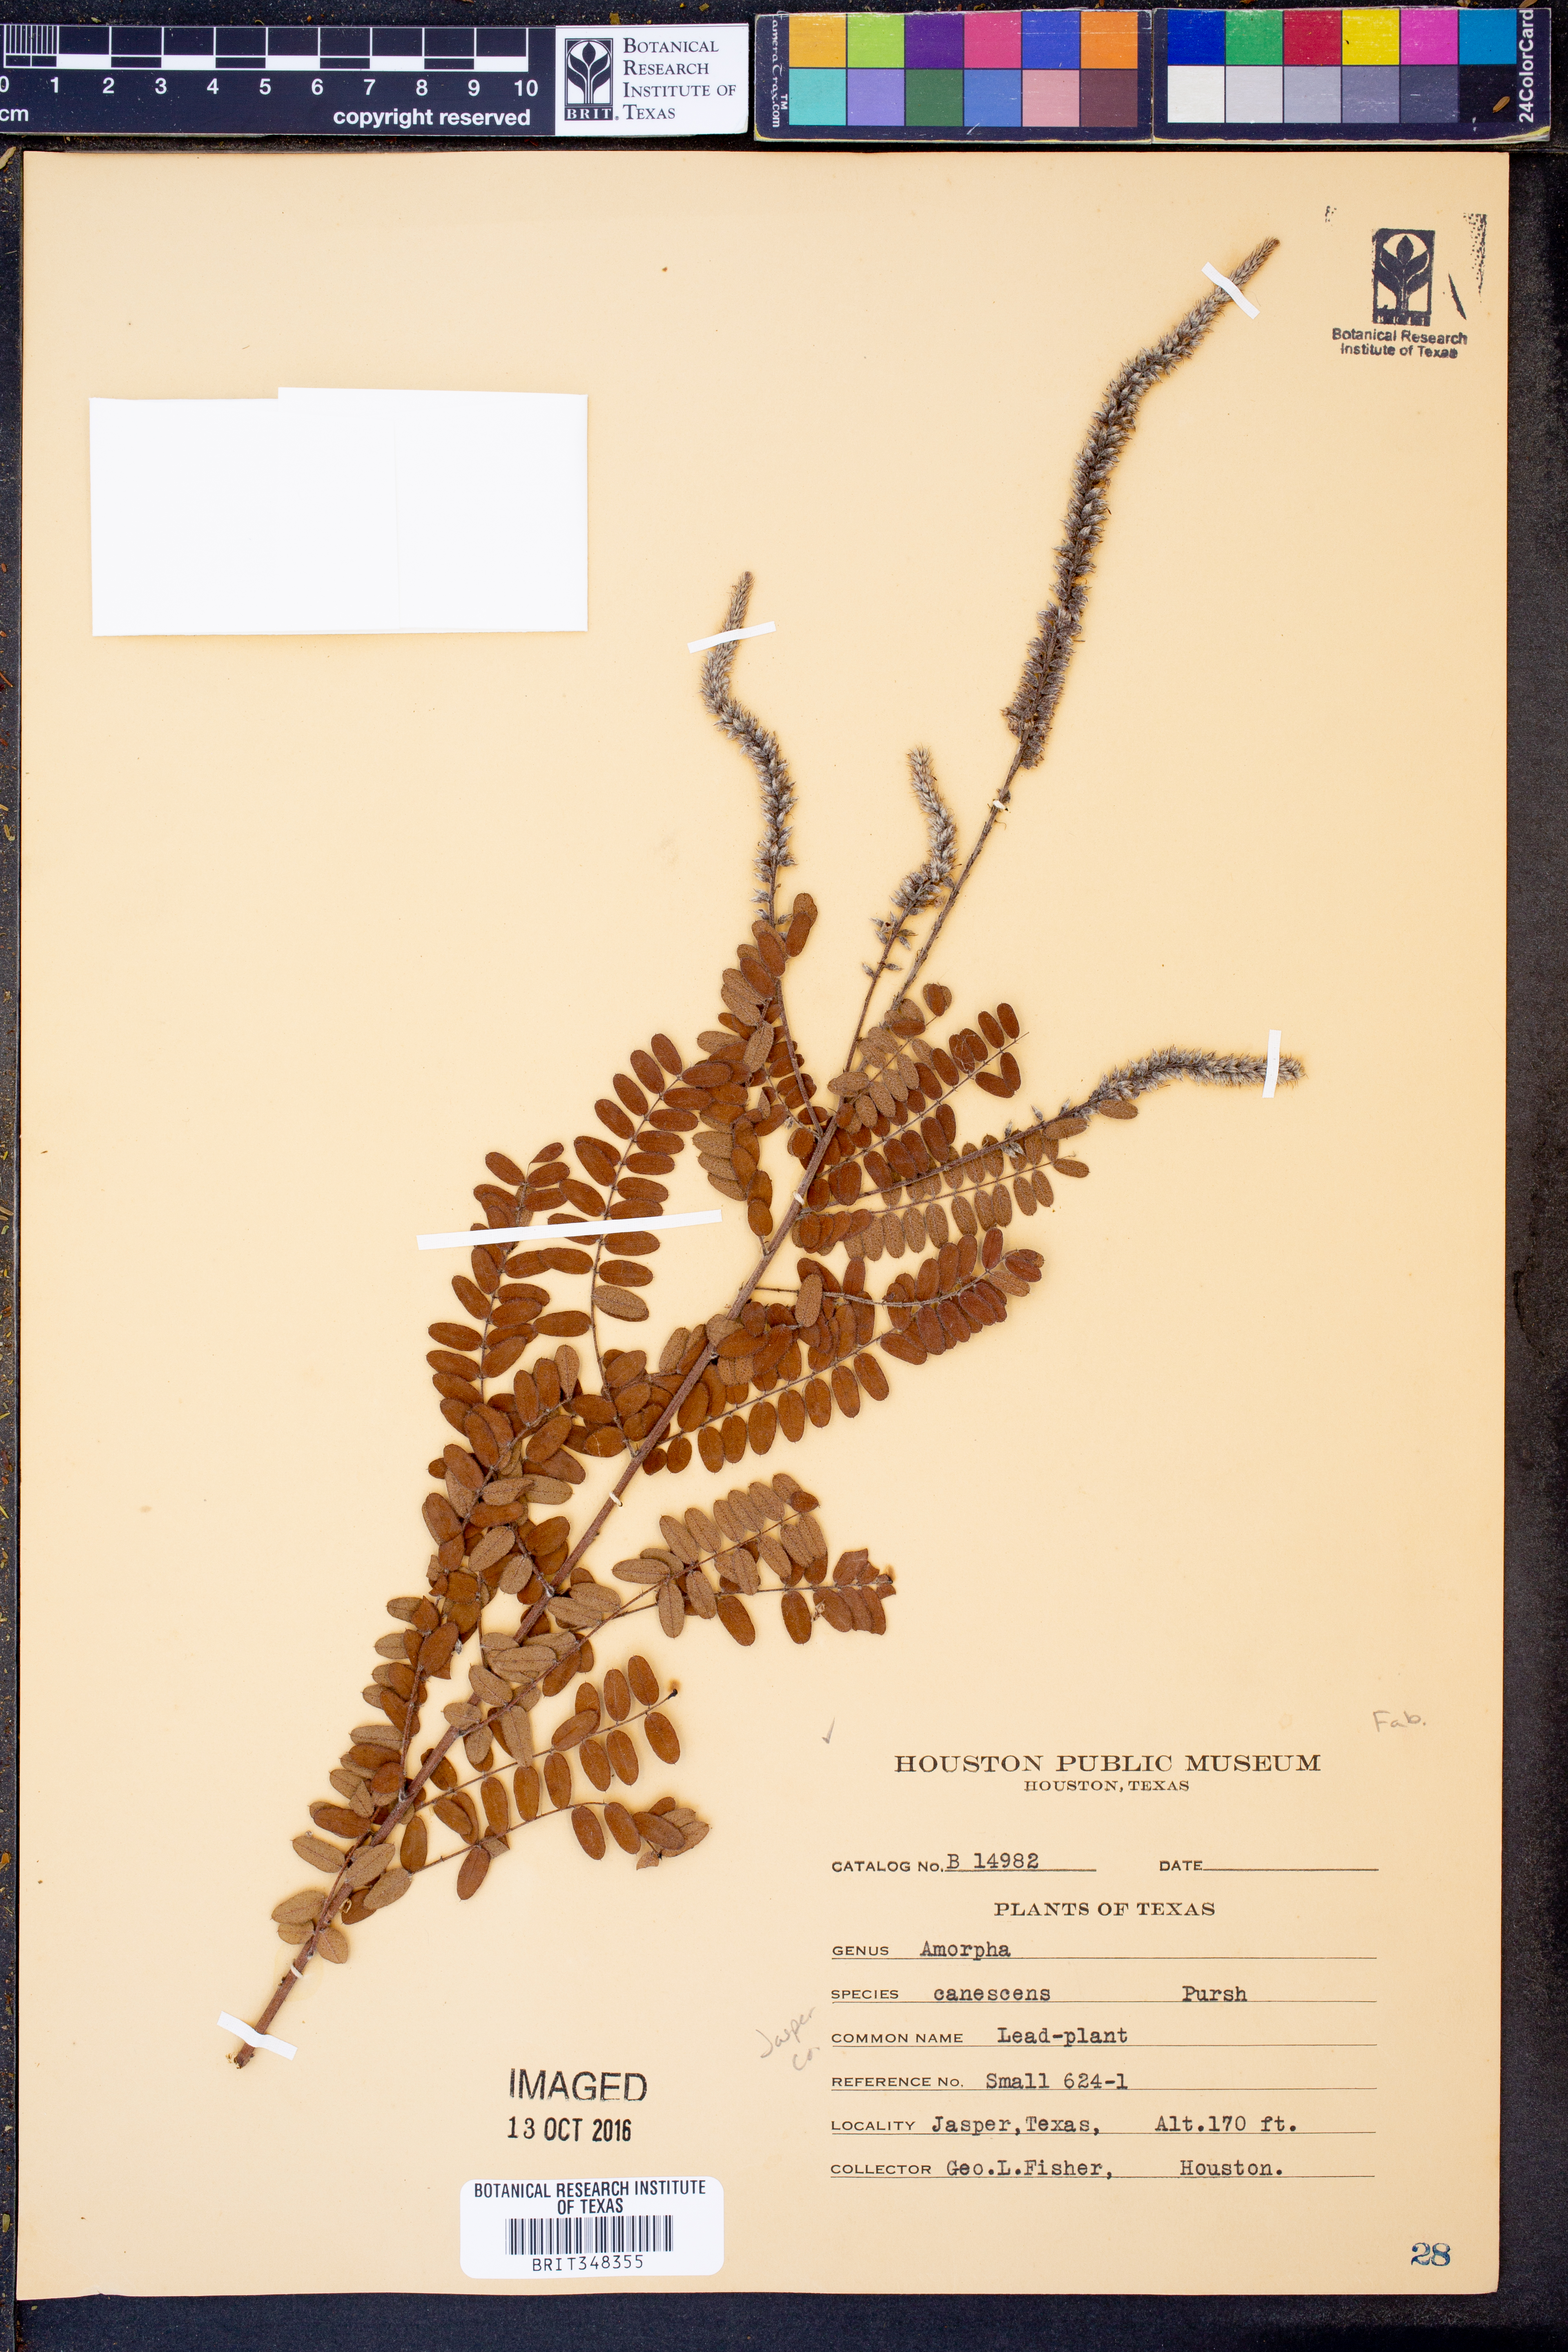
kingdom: Plantae
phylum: Tracheophyta
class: Magnoliopsida
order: Fabales
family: Fabaceae
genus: Amorpha
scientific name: Amorpha canescens
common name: Leadplant
